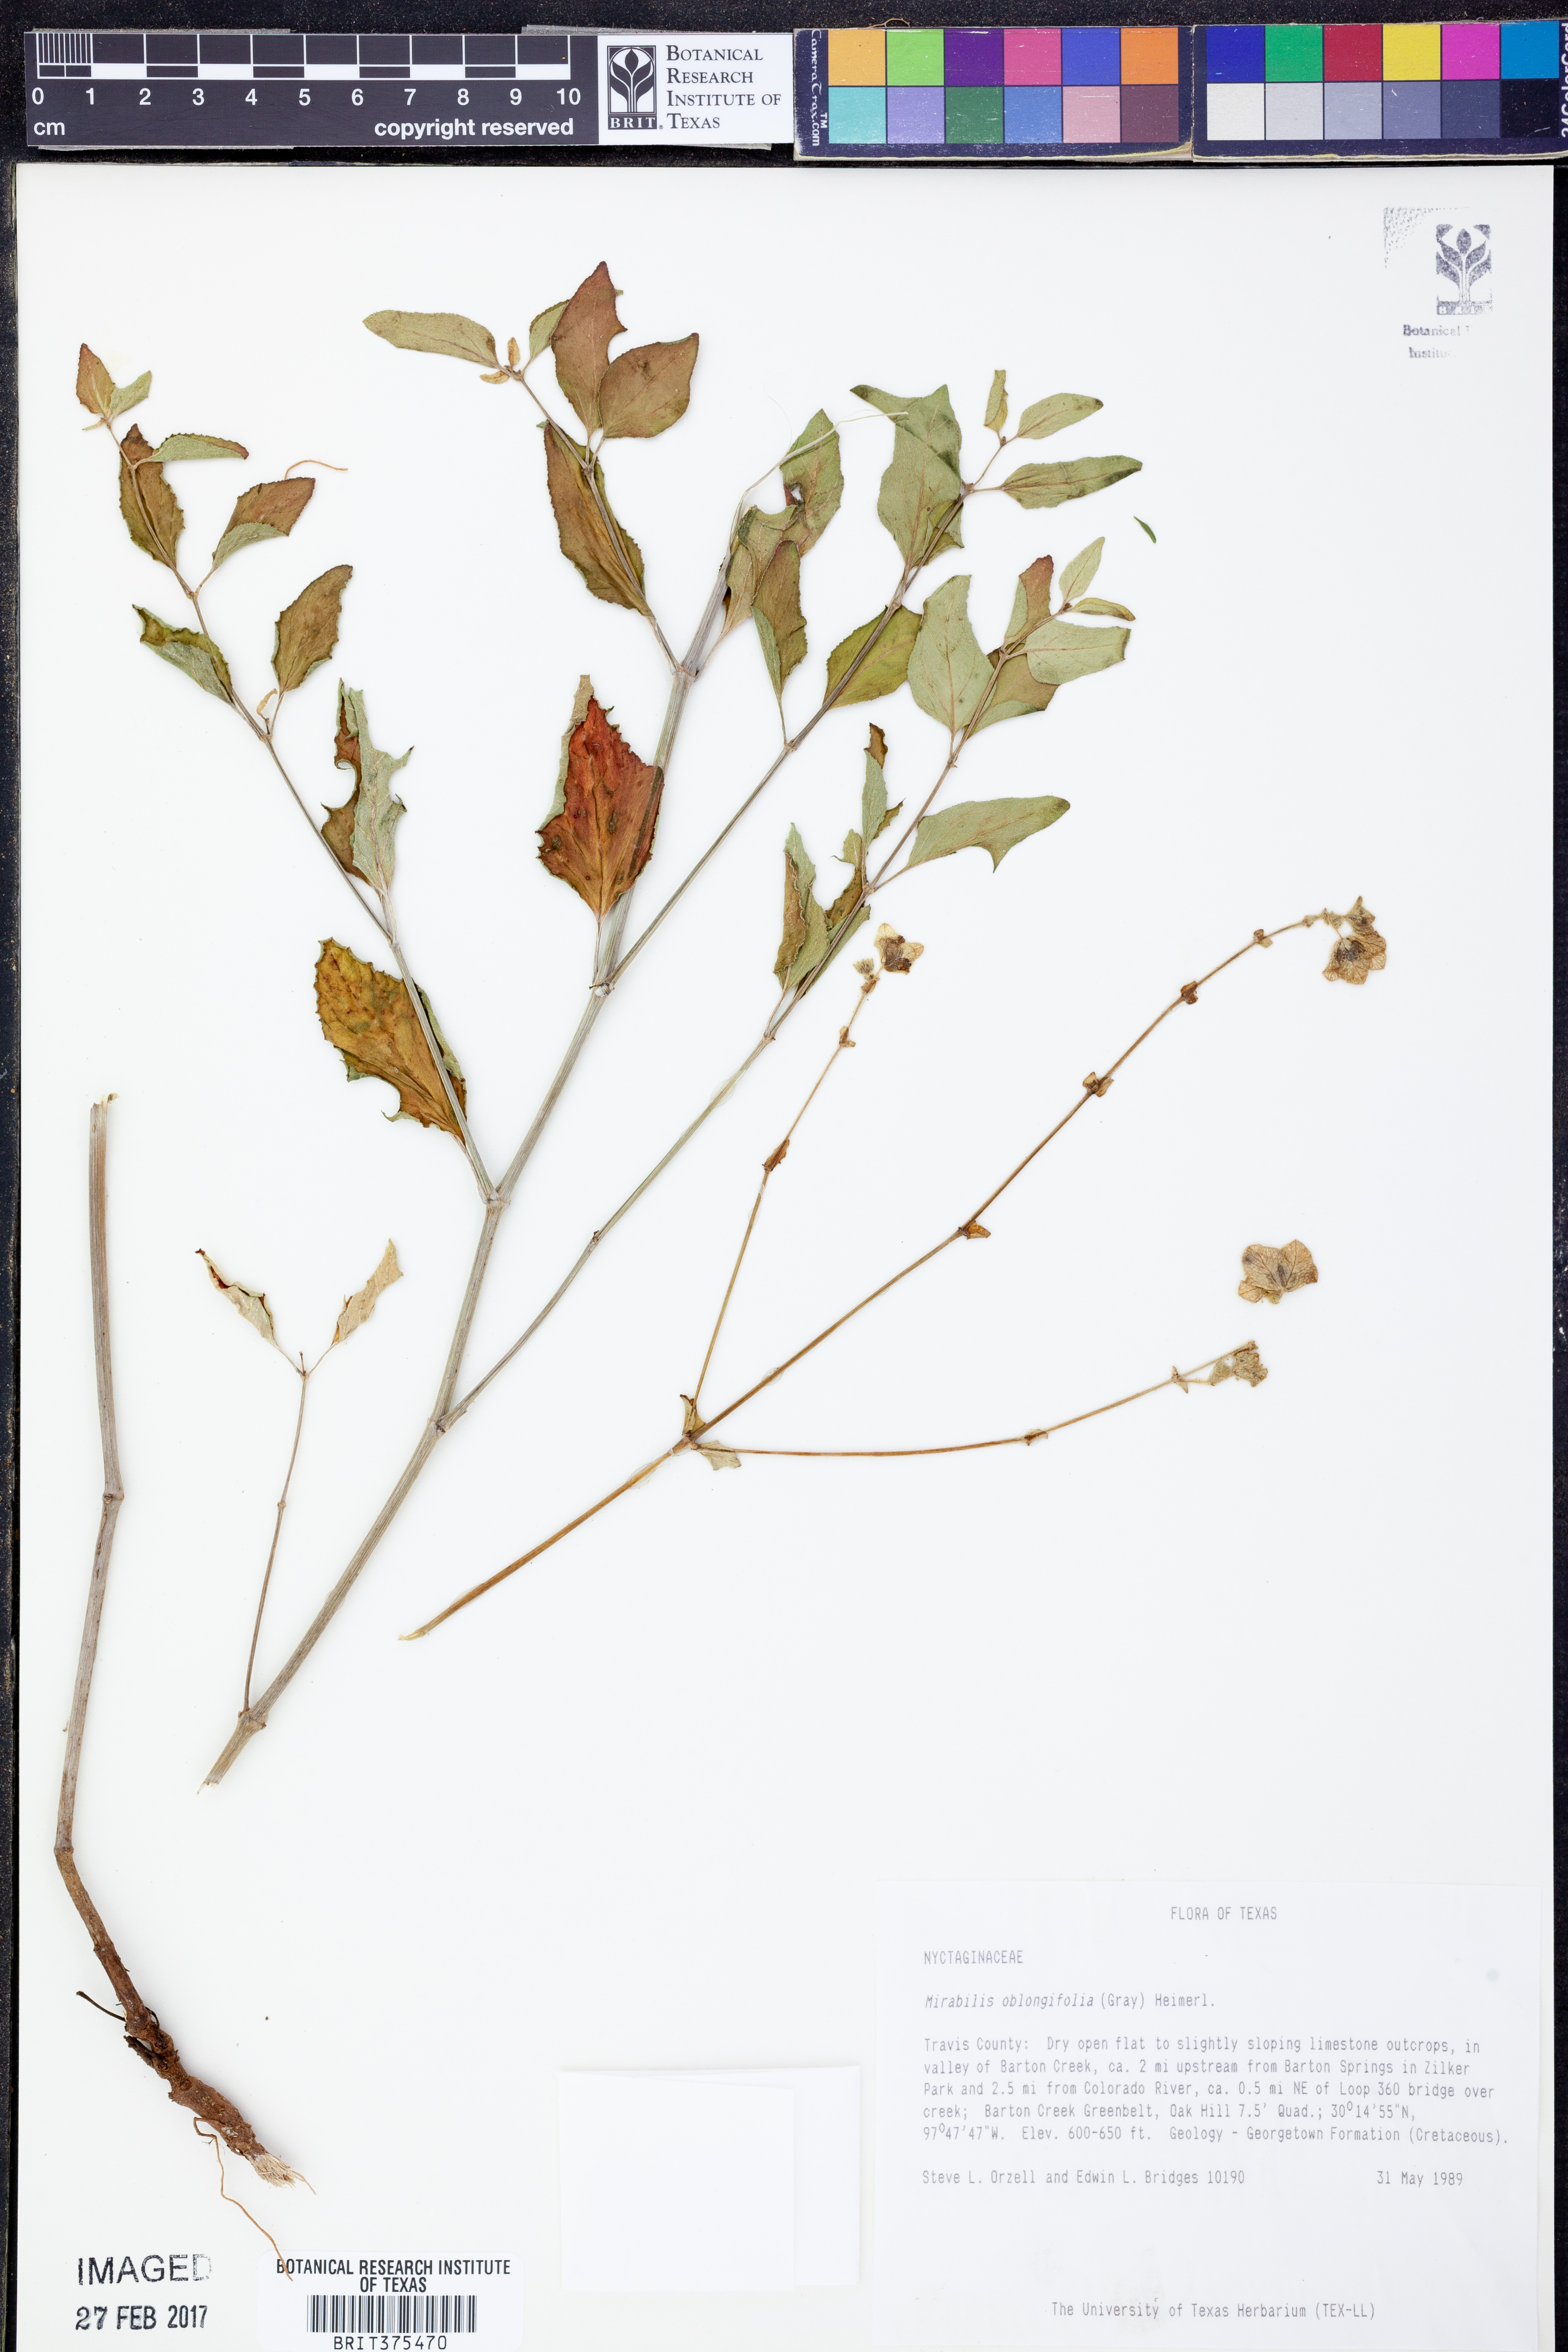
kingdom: Plantae
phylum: Tracheophyta
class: Magnoliopsida
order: Caryophyllales
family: Nyctaginaceae
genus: Mirabilis
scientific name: Mirabilis albida
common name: Hairy four-o'clock
